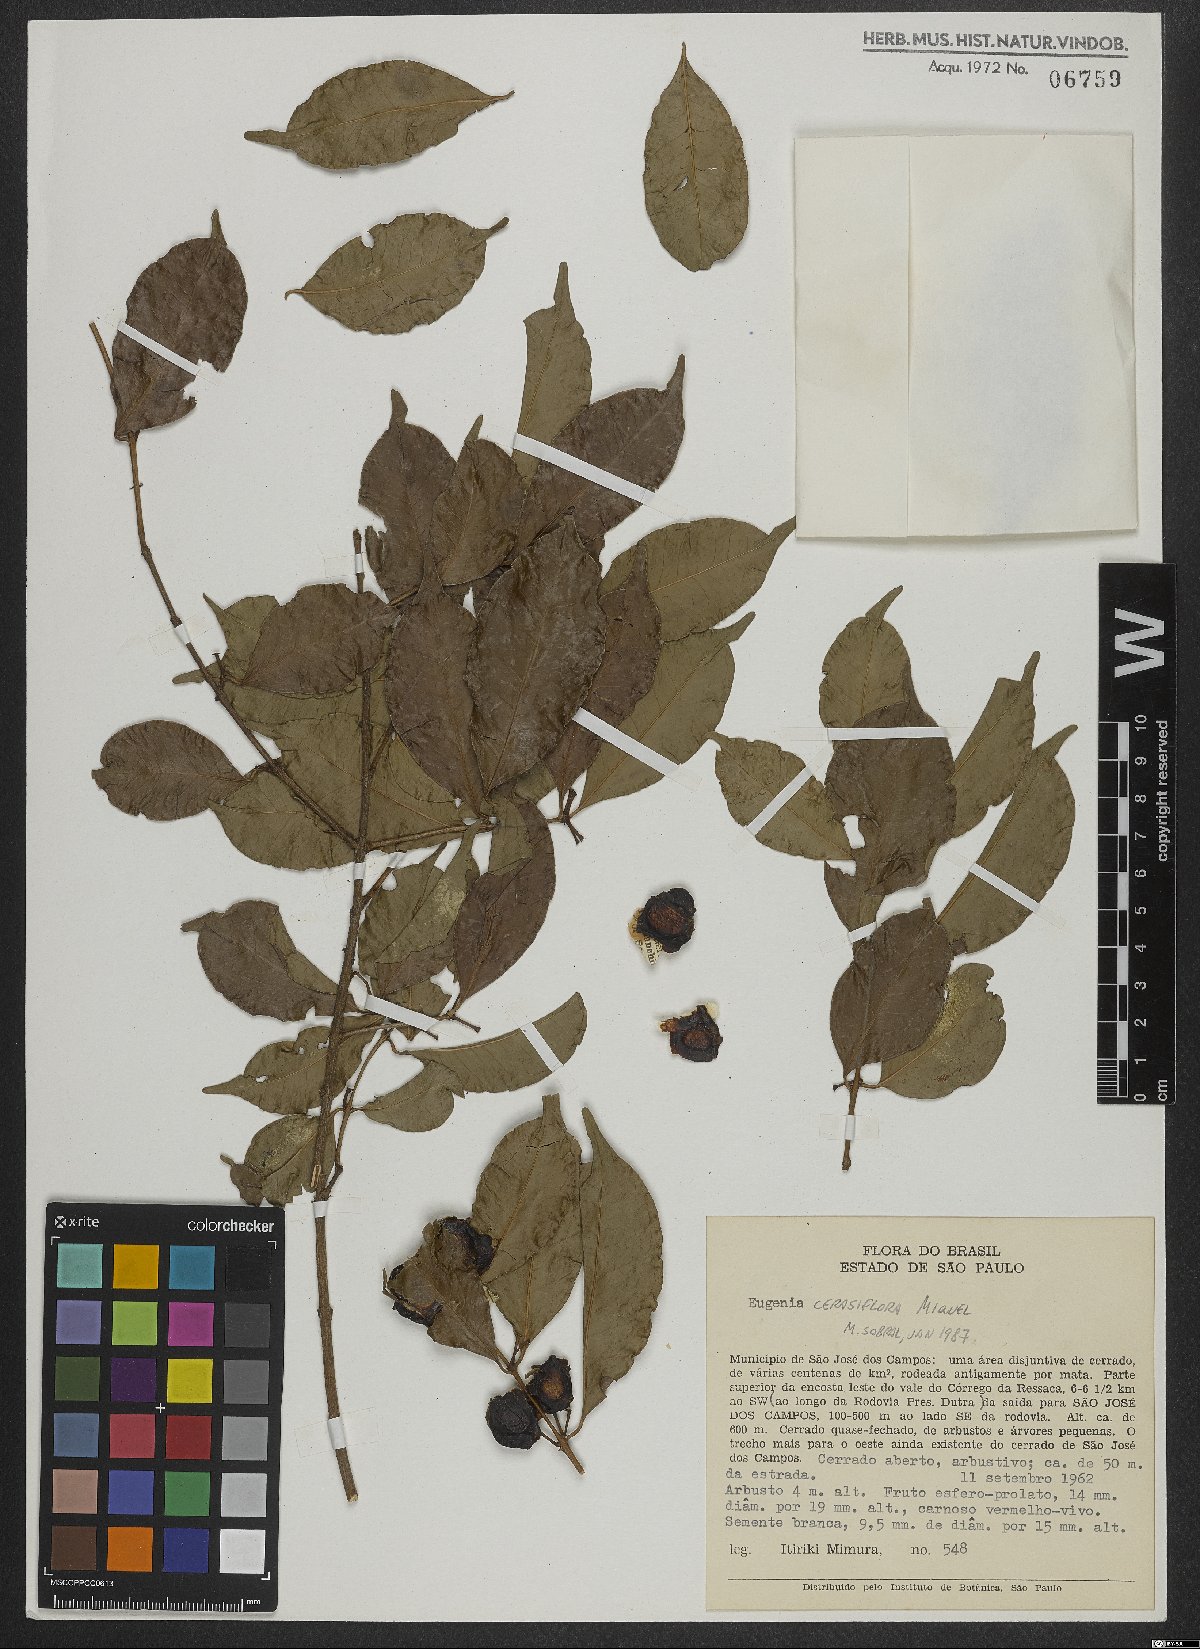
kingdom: Plantae
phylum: Tracheophyta
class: Magnoliopsida
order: Myrtales
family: Myrtaceae
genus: Eugenia
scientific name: Eugenia cerasiflora
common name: Cherry-of-the-rio-grande
